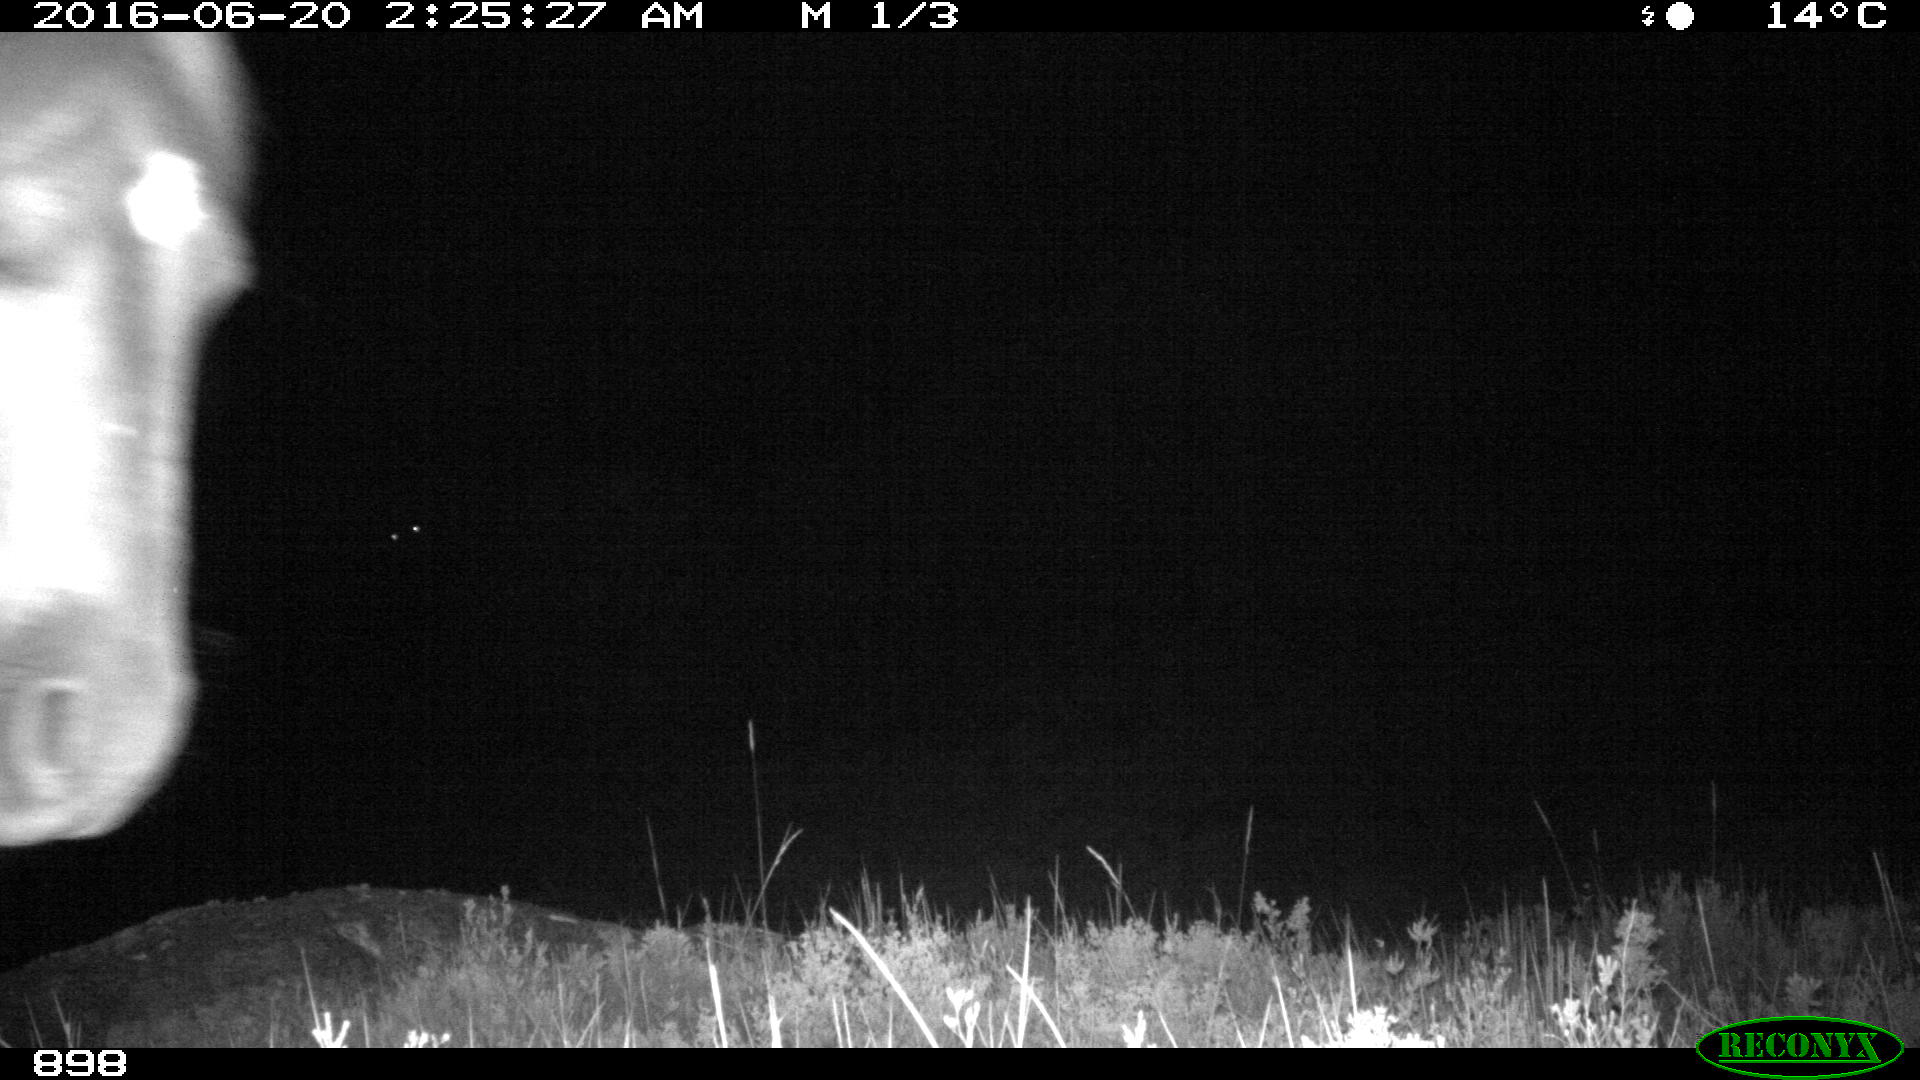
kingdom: Animalia
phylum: Chordata
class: Mammalia
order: Perissodactyla
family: Equidae
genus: Equus
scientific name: Equus caballus
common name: Horse
